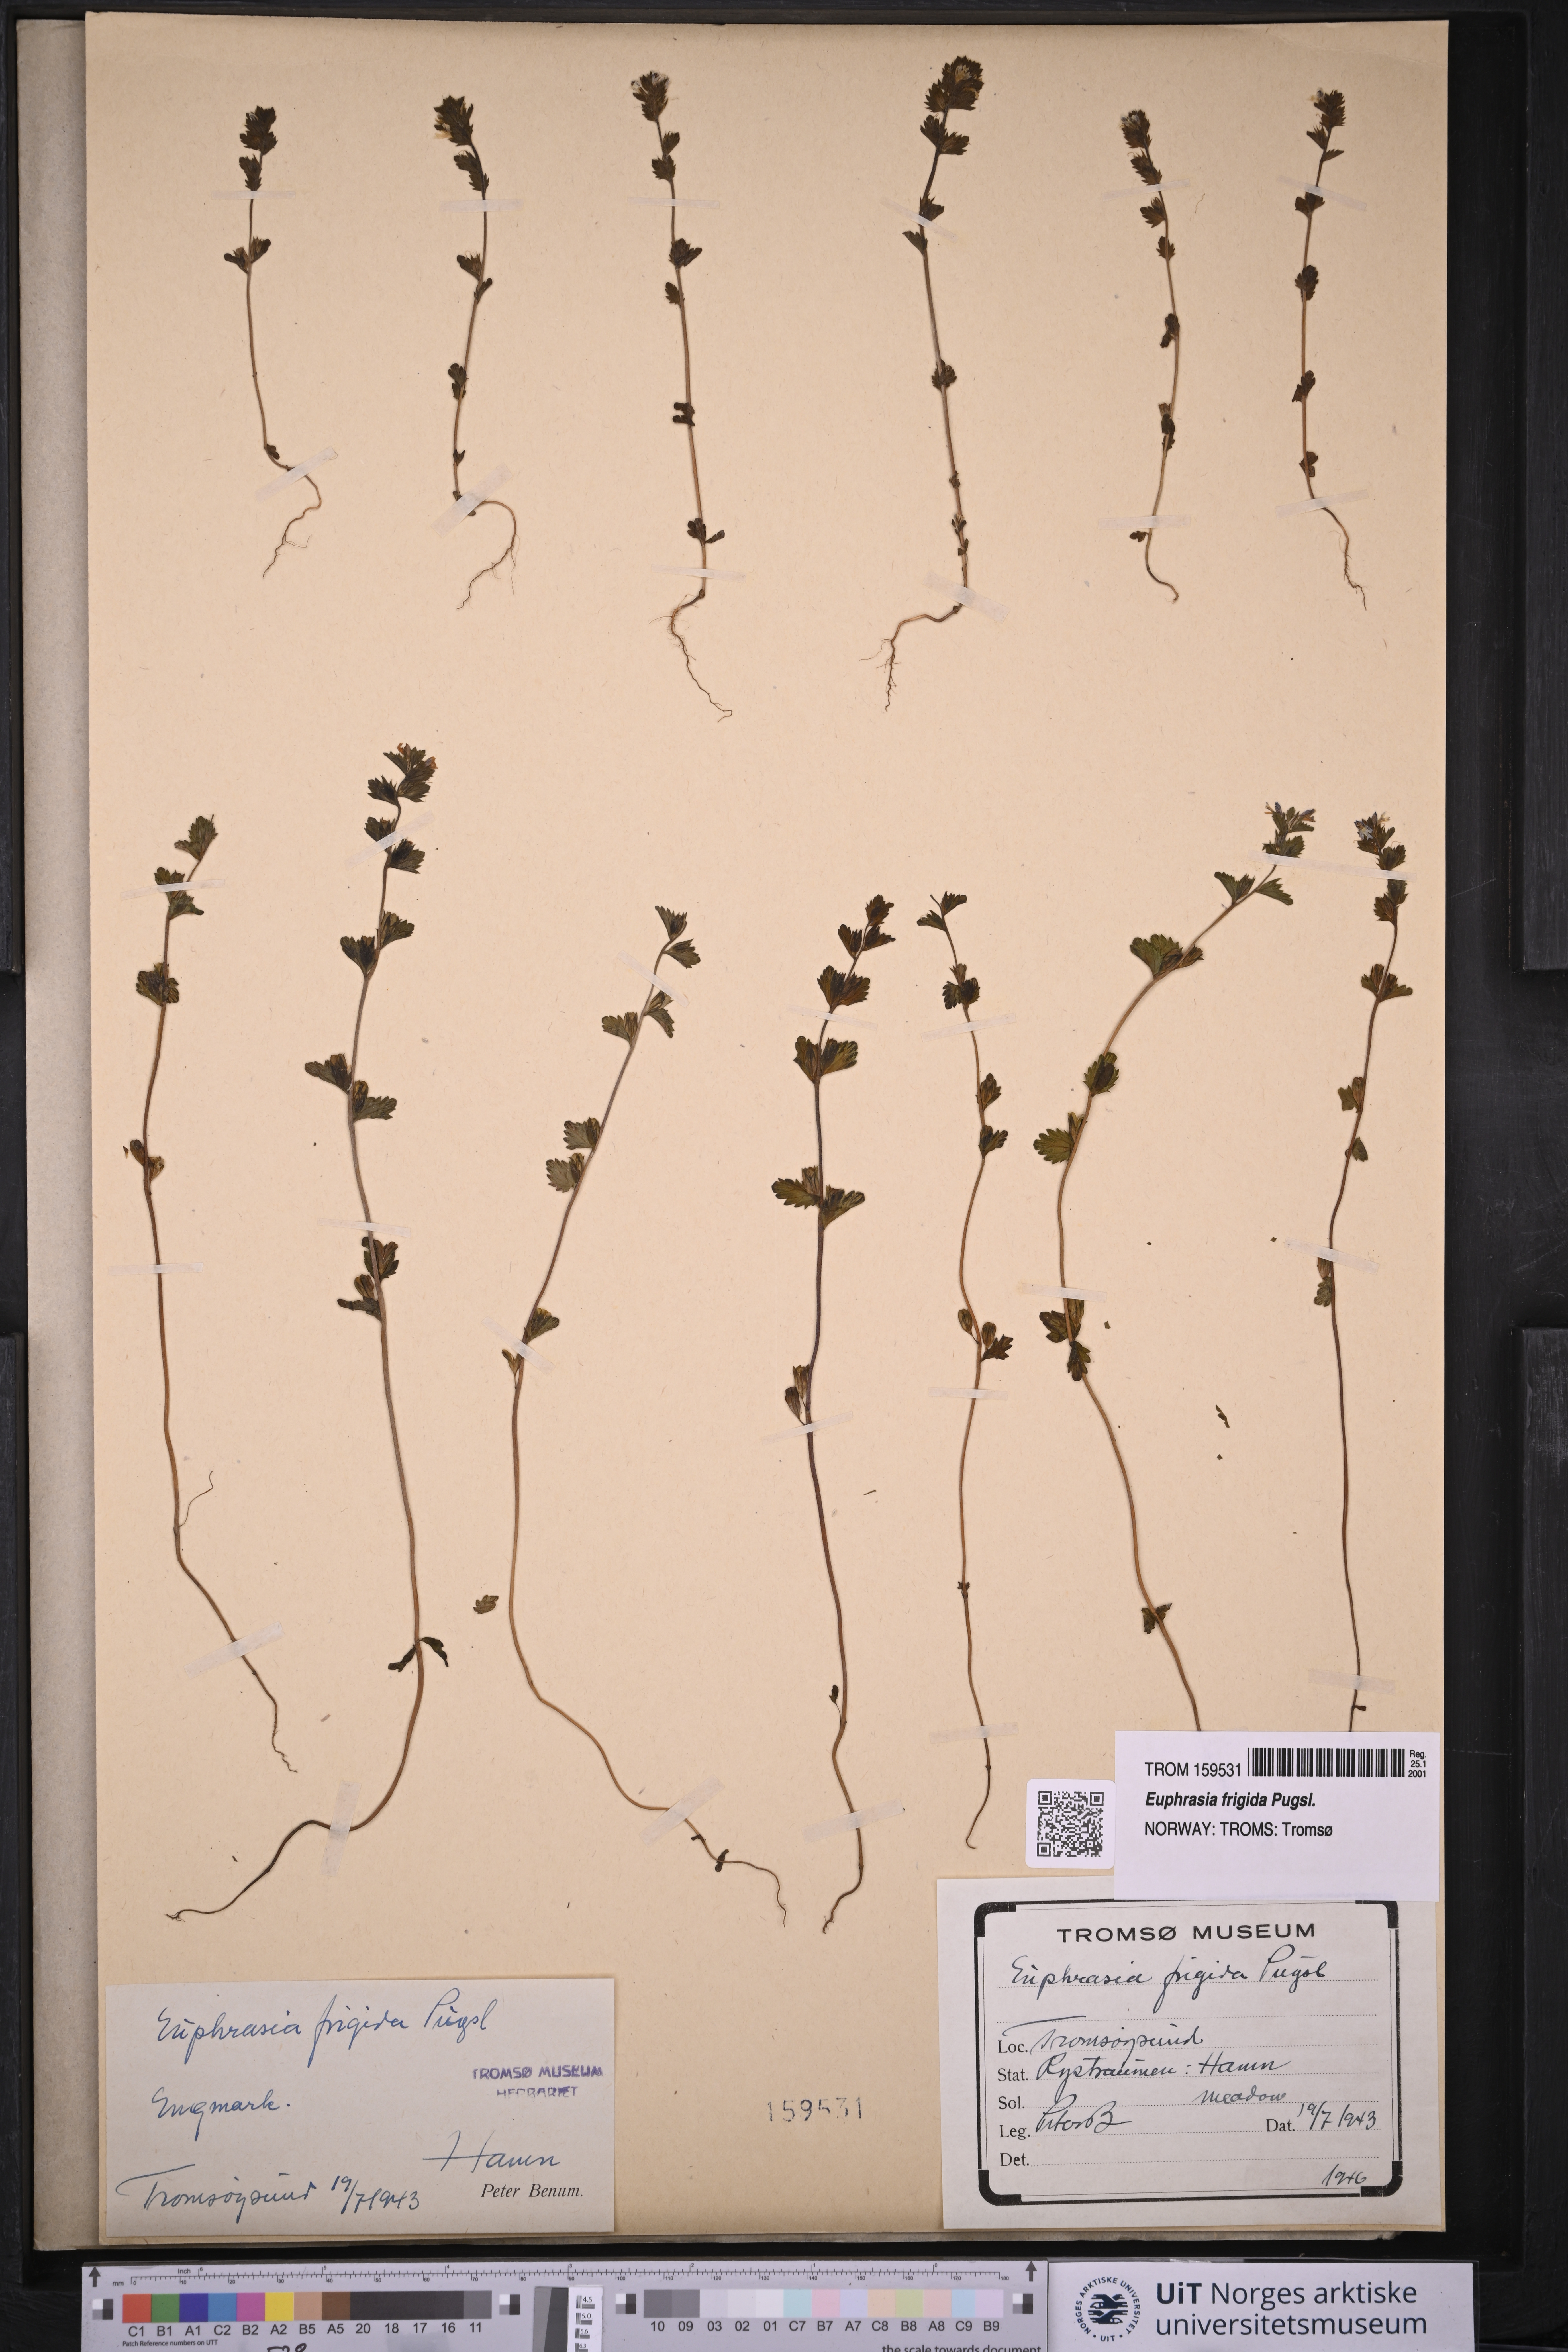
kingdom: Plantae
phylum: Tracheophyta
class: Magnoliopsida
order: Lamiales
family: Orobanchaceae
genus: Euphrasia
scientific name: Euphrasia frigida
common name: An eyebright
